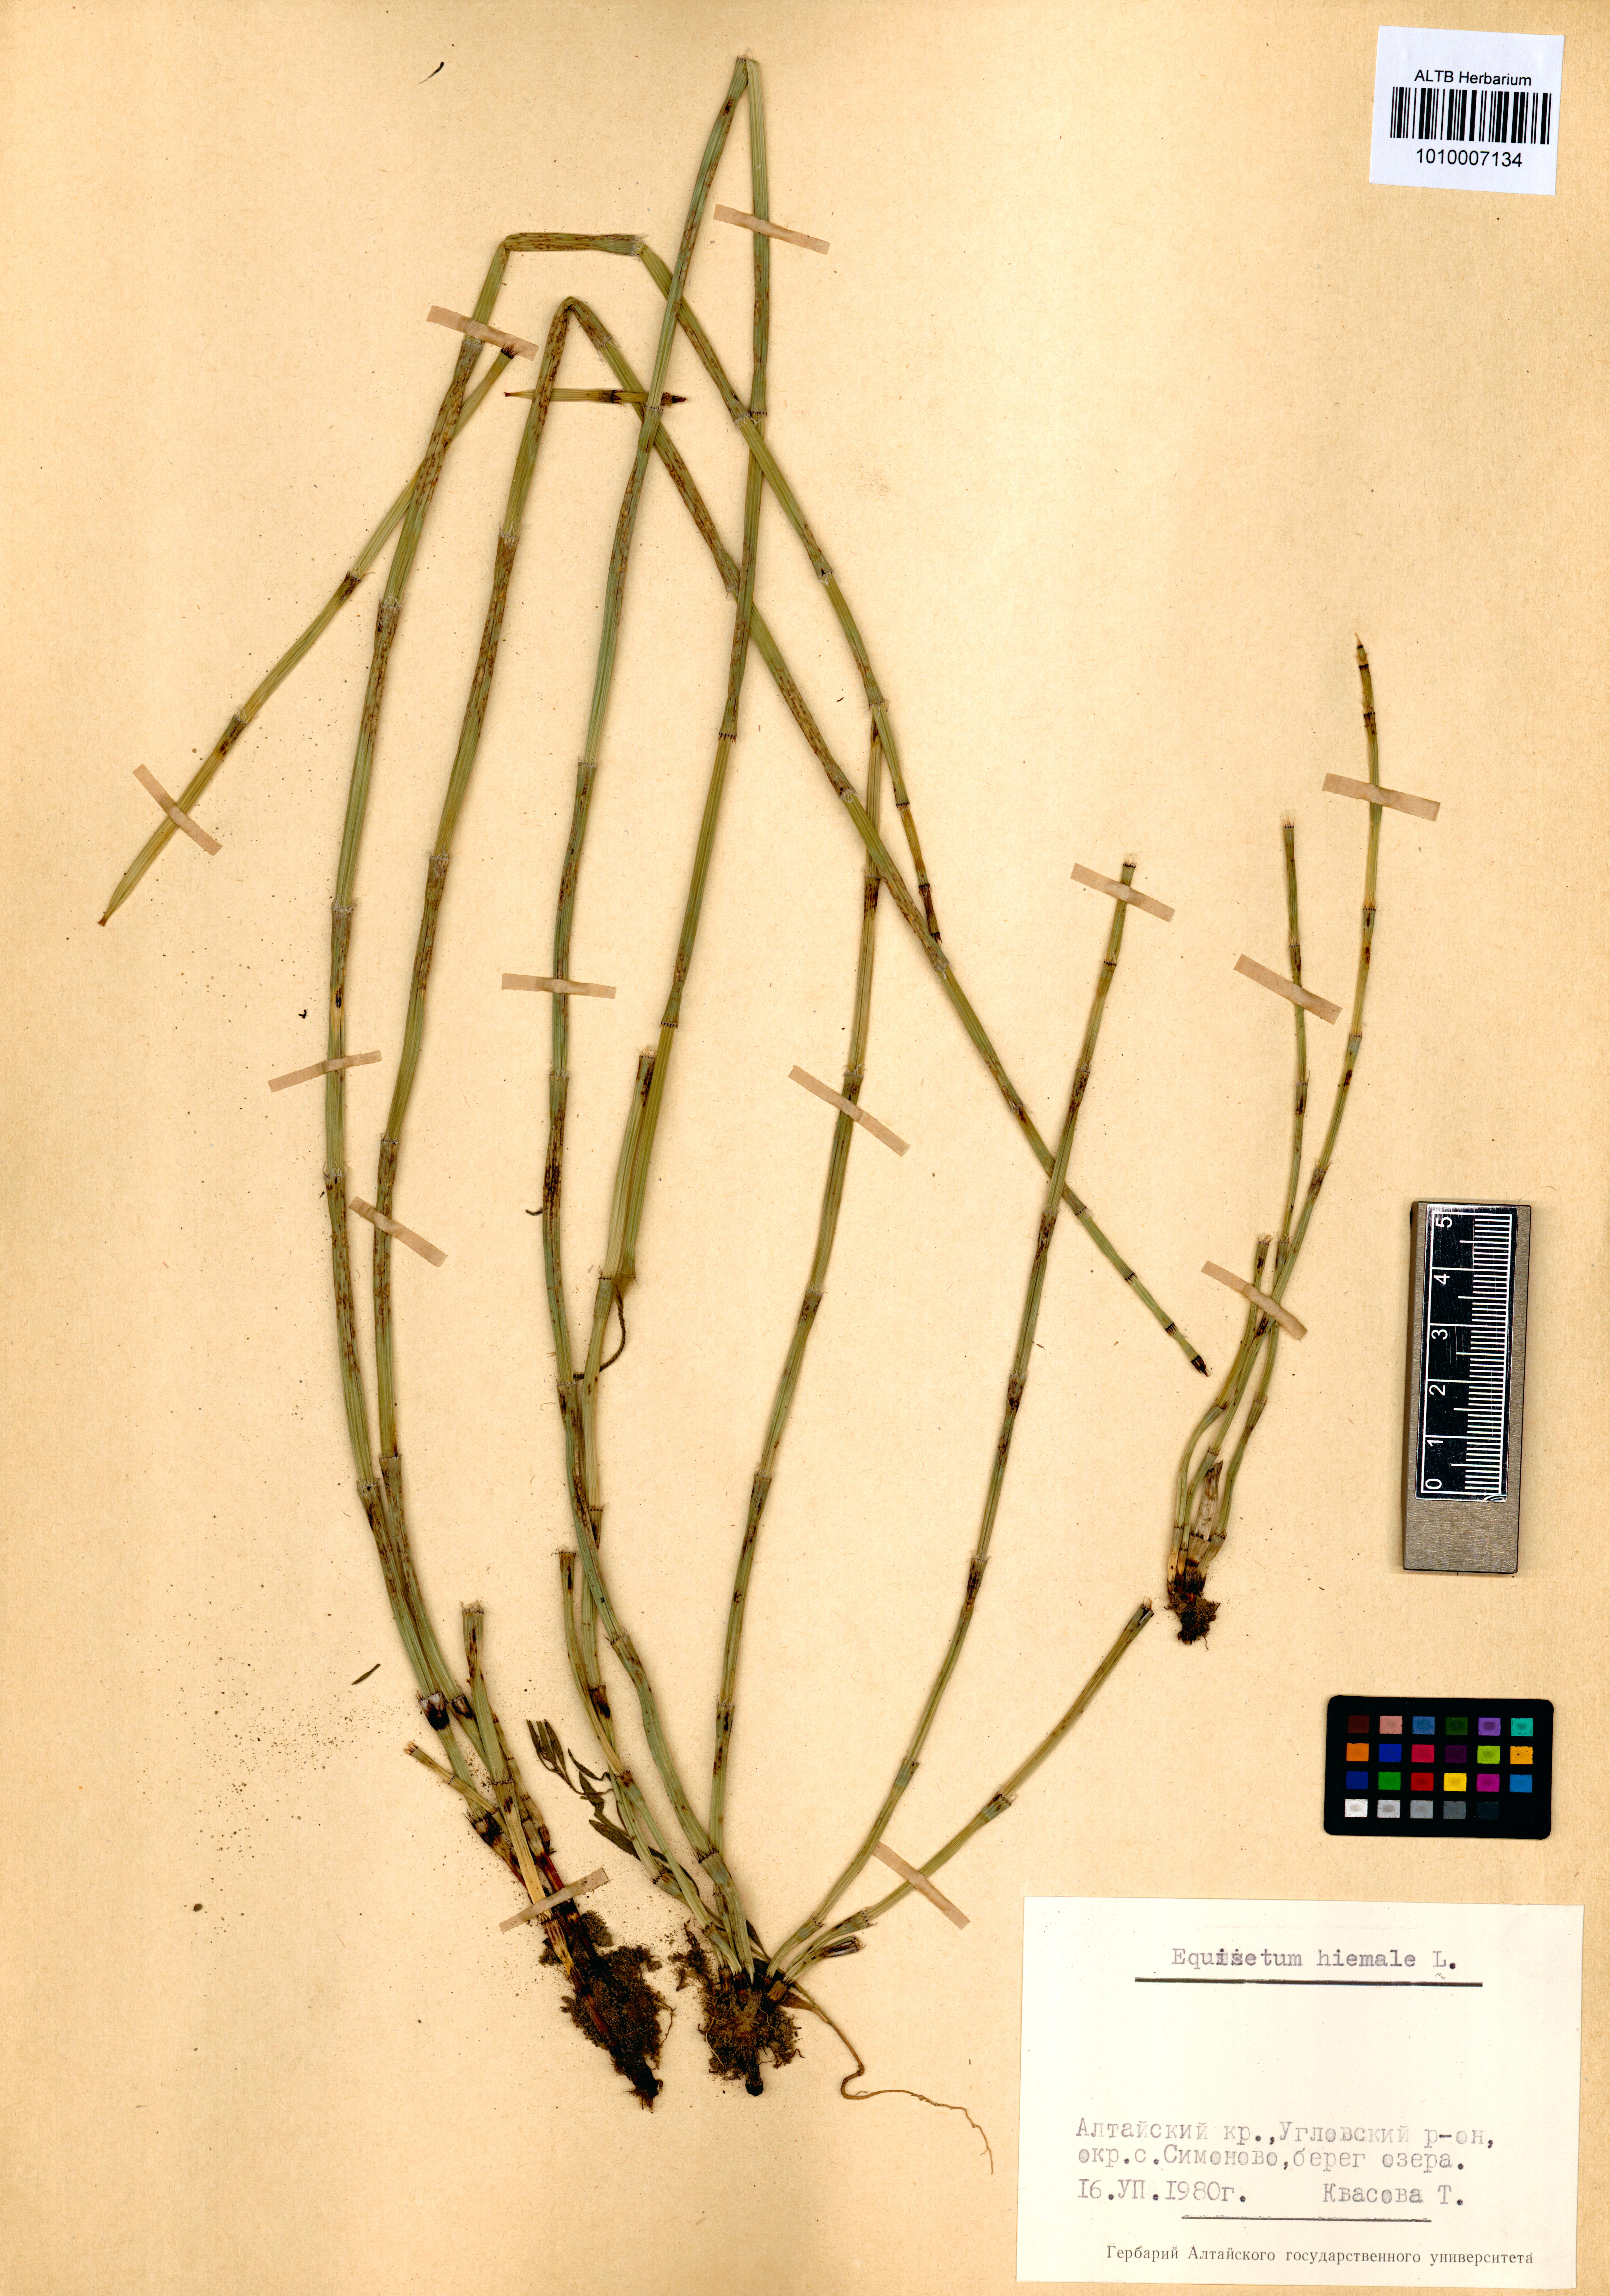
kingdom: Plantae
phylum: Tracheophyta
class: Polypodiopsida
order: Equisetales
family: Equisetaceae
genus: Equisetum
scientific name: Equisetum hyemale
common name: Rough horsetail
